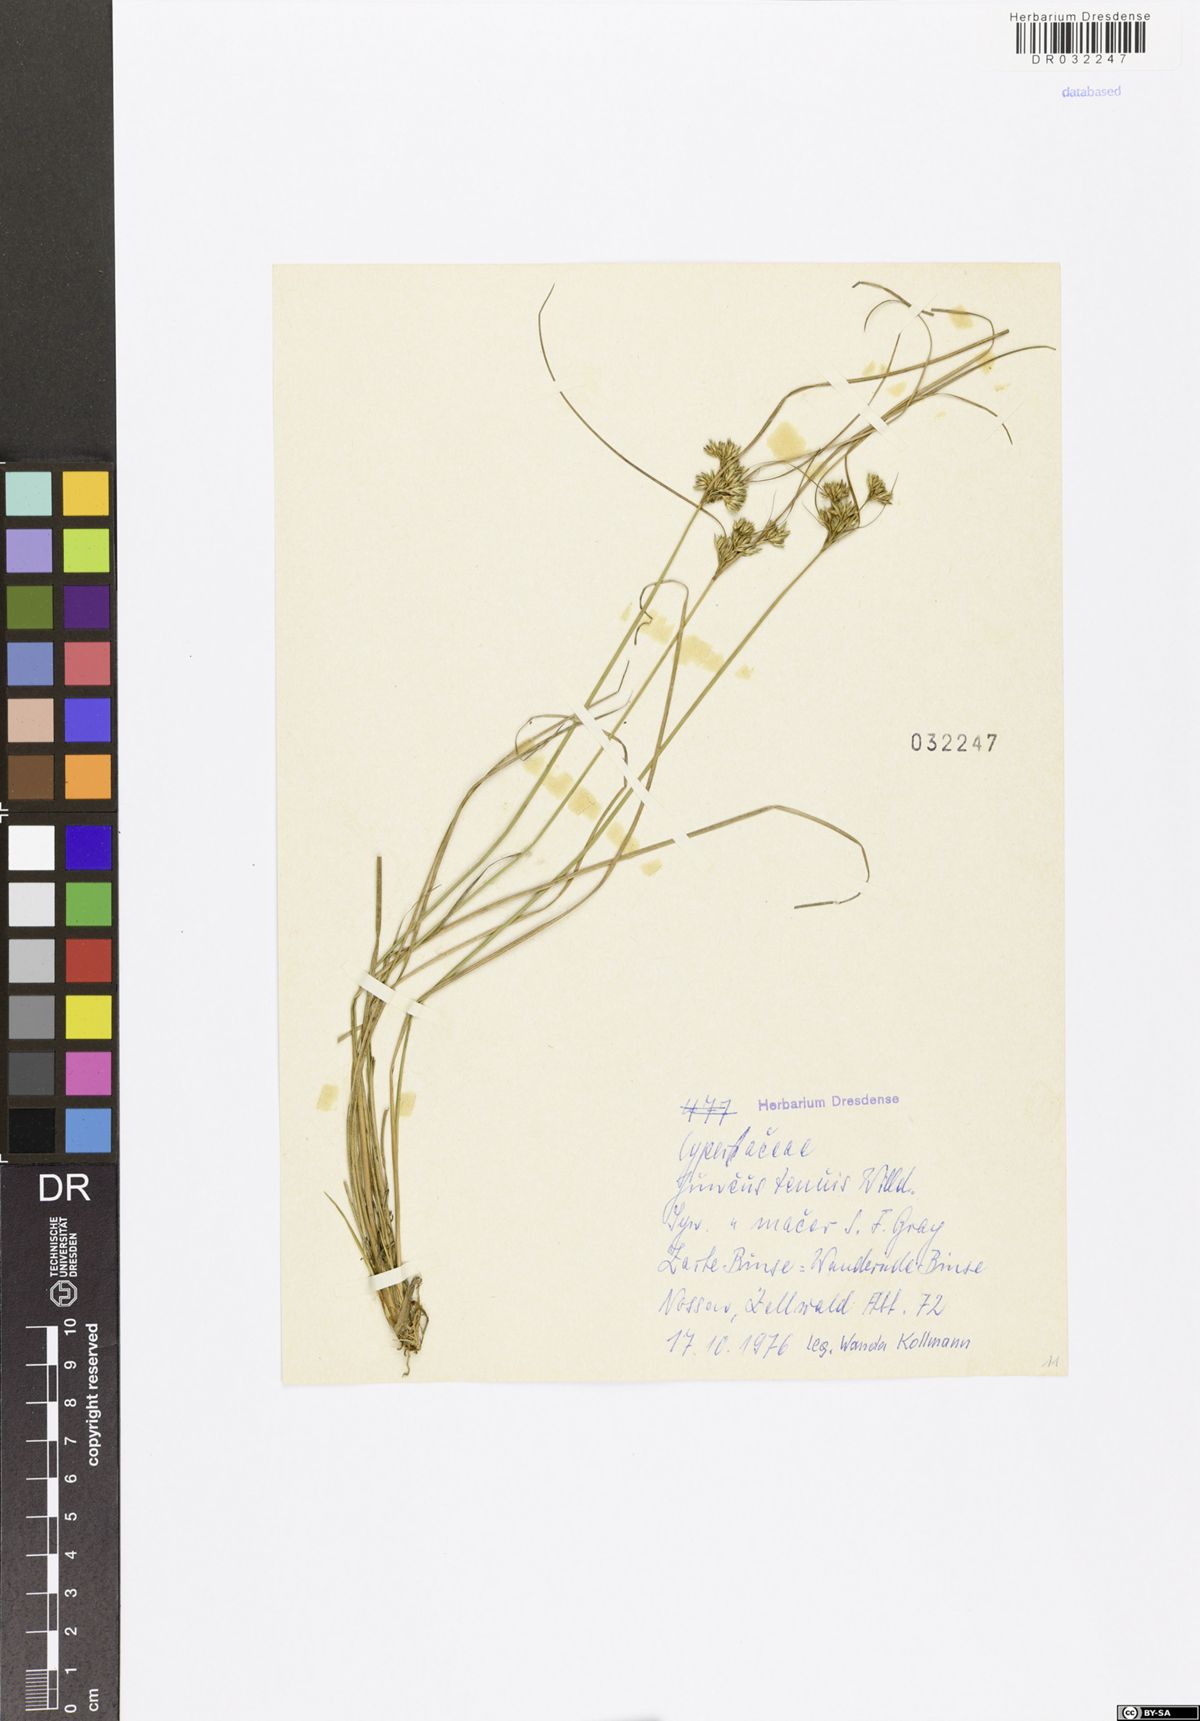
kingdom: Plantae
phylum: Tracheophyta
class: Liliopsida
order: Poales
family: Juncaceae
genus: Juncus
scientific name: Juncus tenuis
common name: Slender rush
